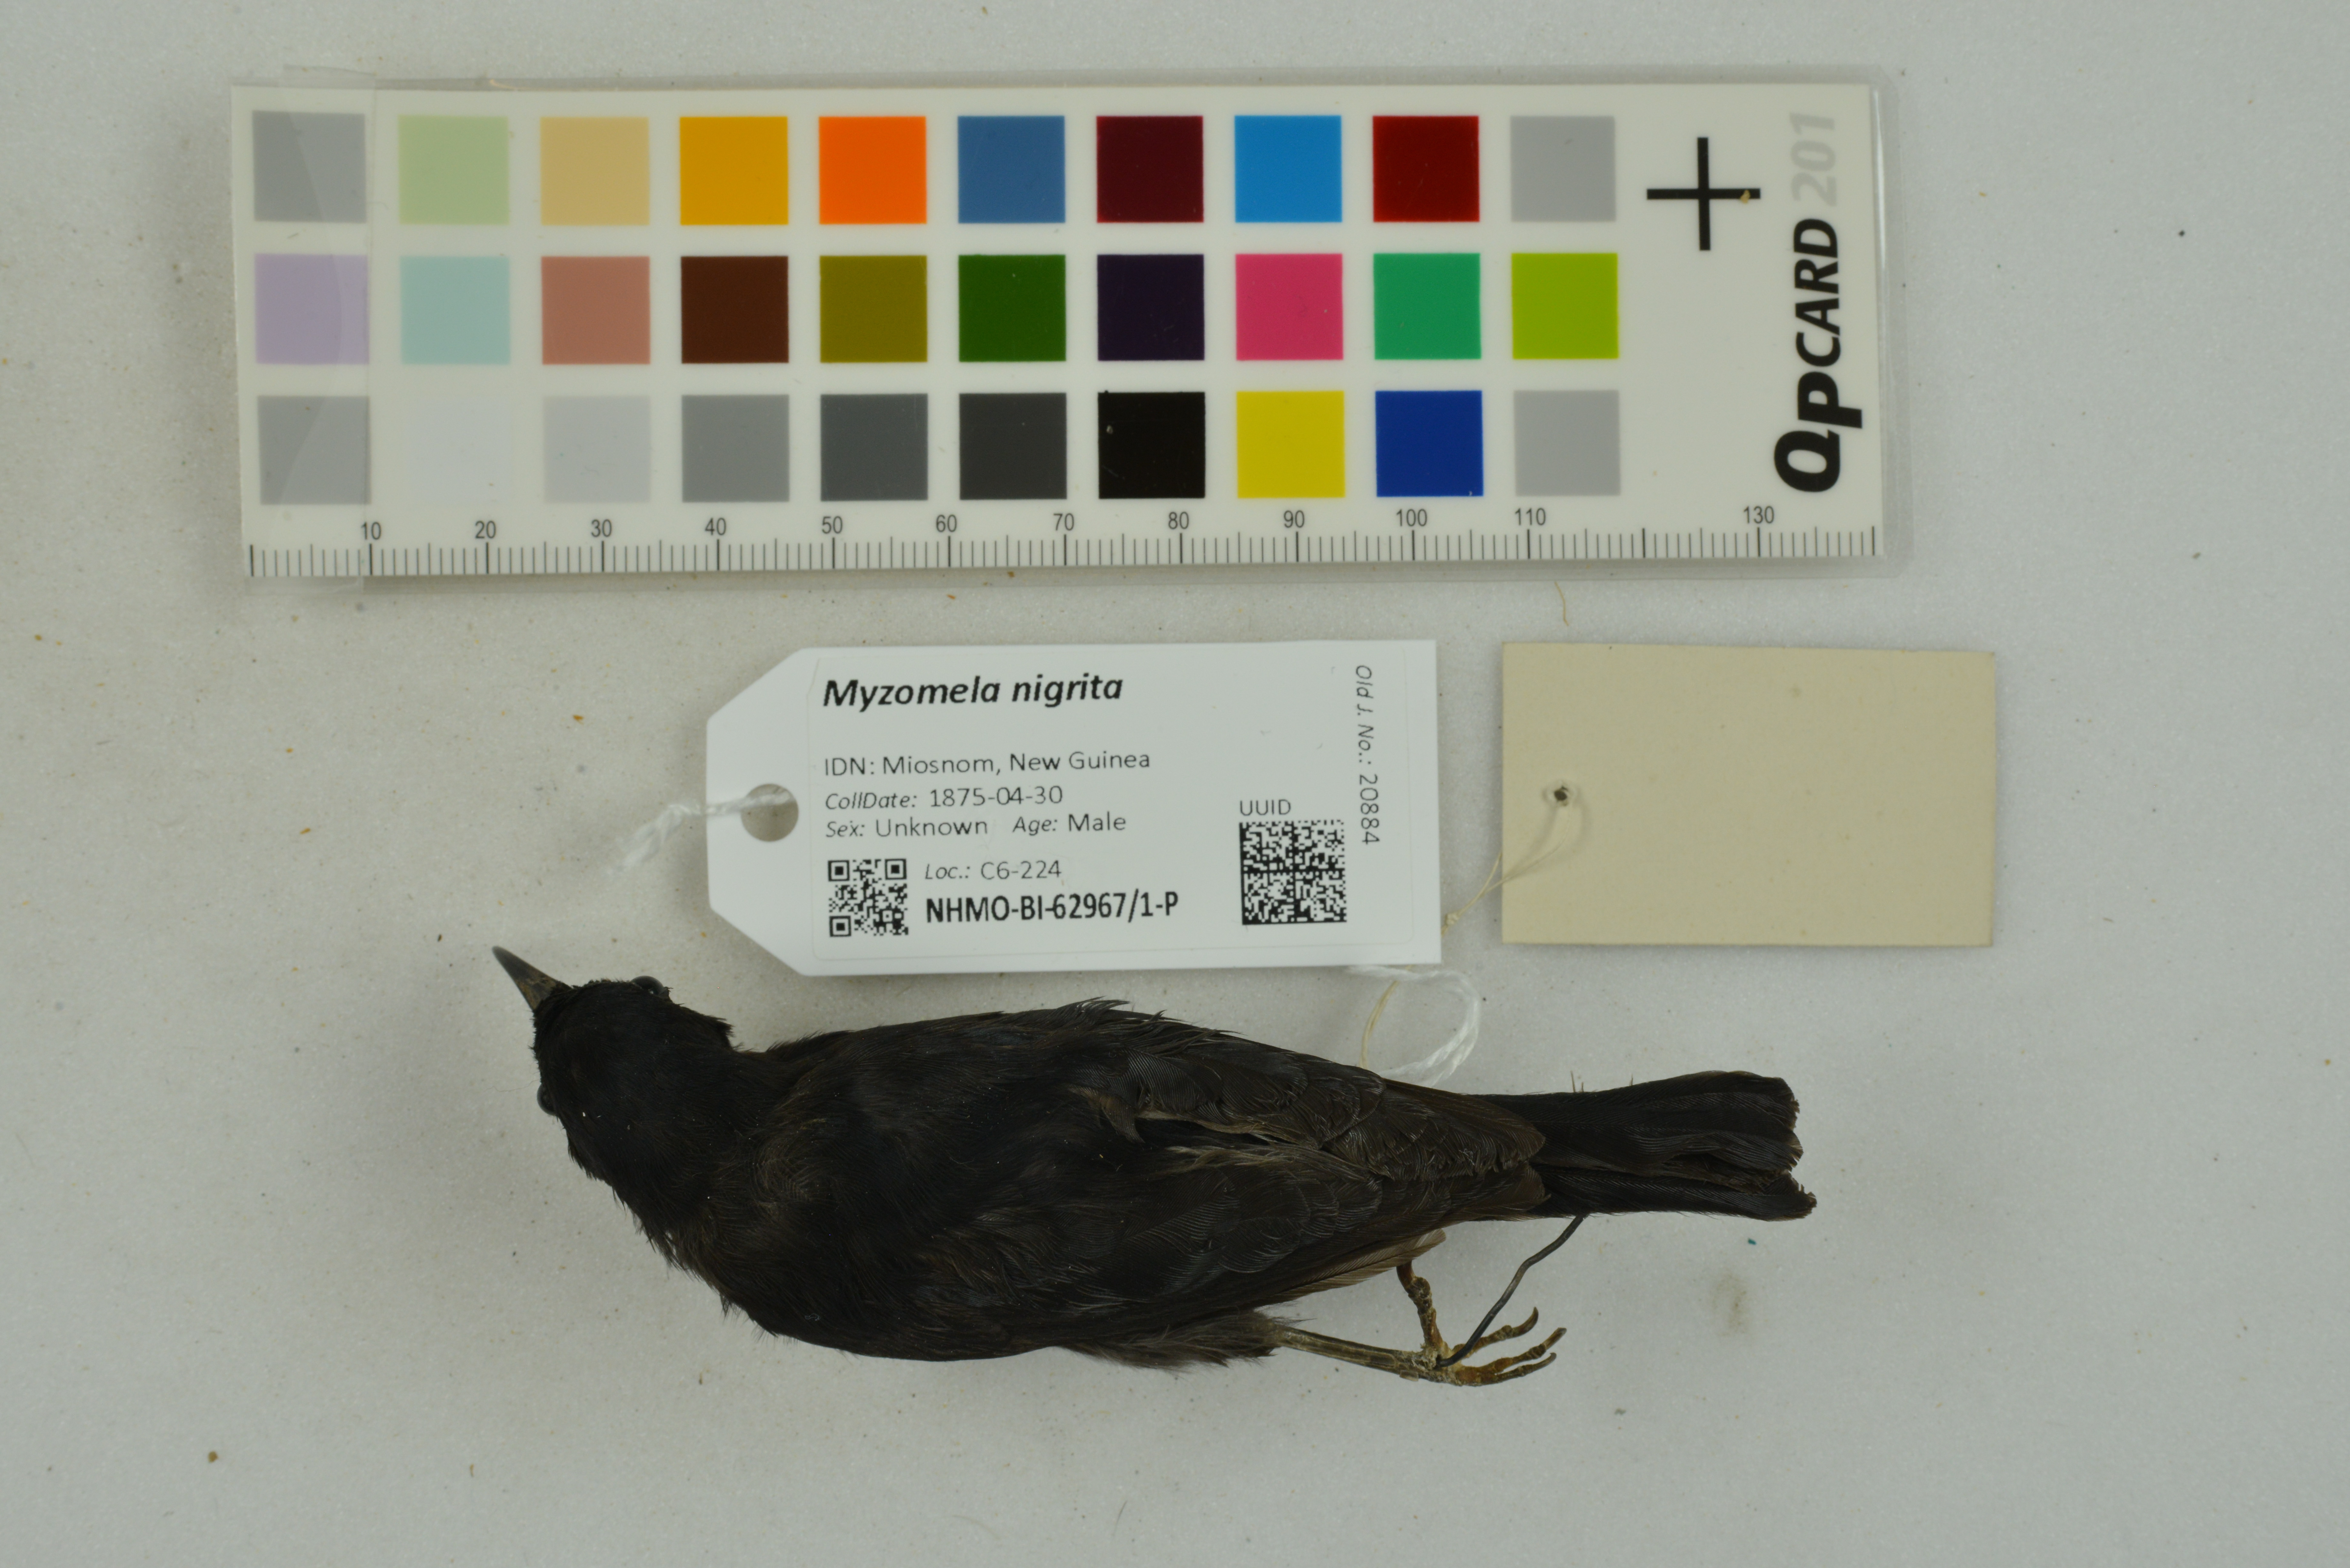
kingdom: Animalia
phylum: Chordata
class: Aves
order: Passeriformes
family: Meliphagidae
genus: Myzomela
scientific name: Myzomela nigrita
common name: Papuan black myzomela
